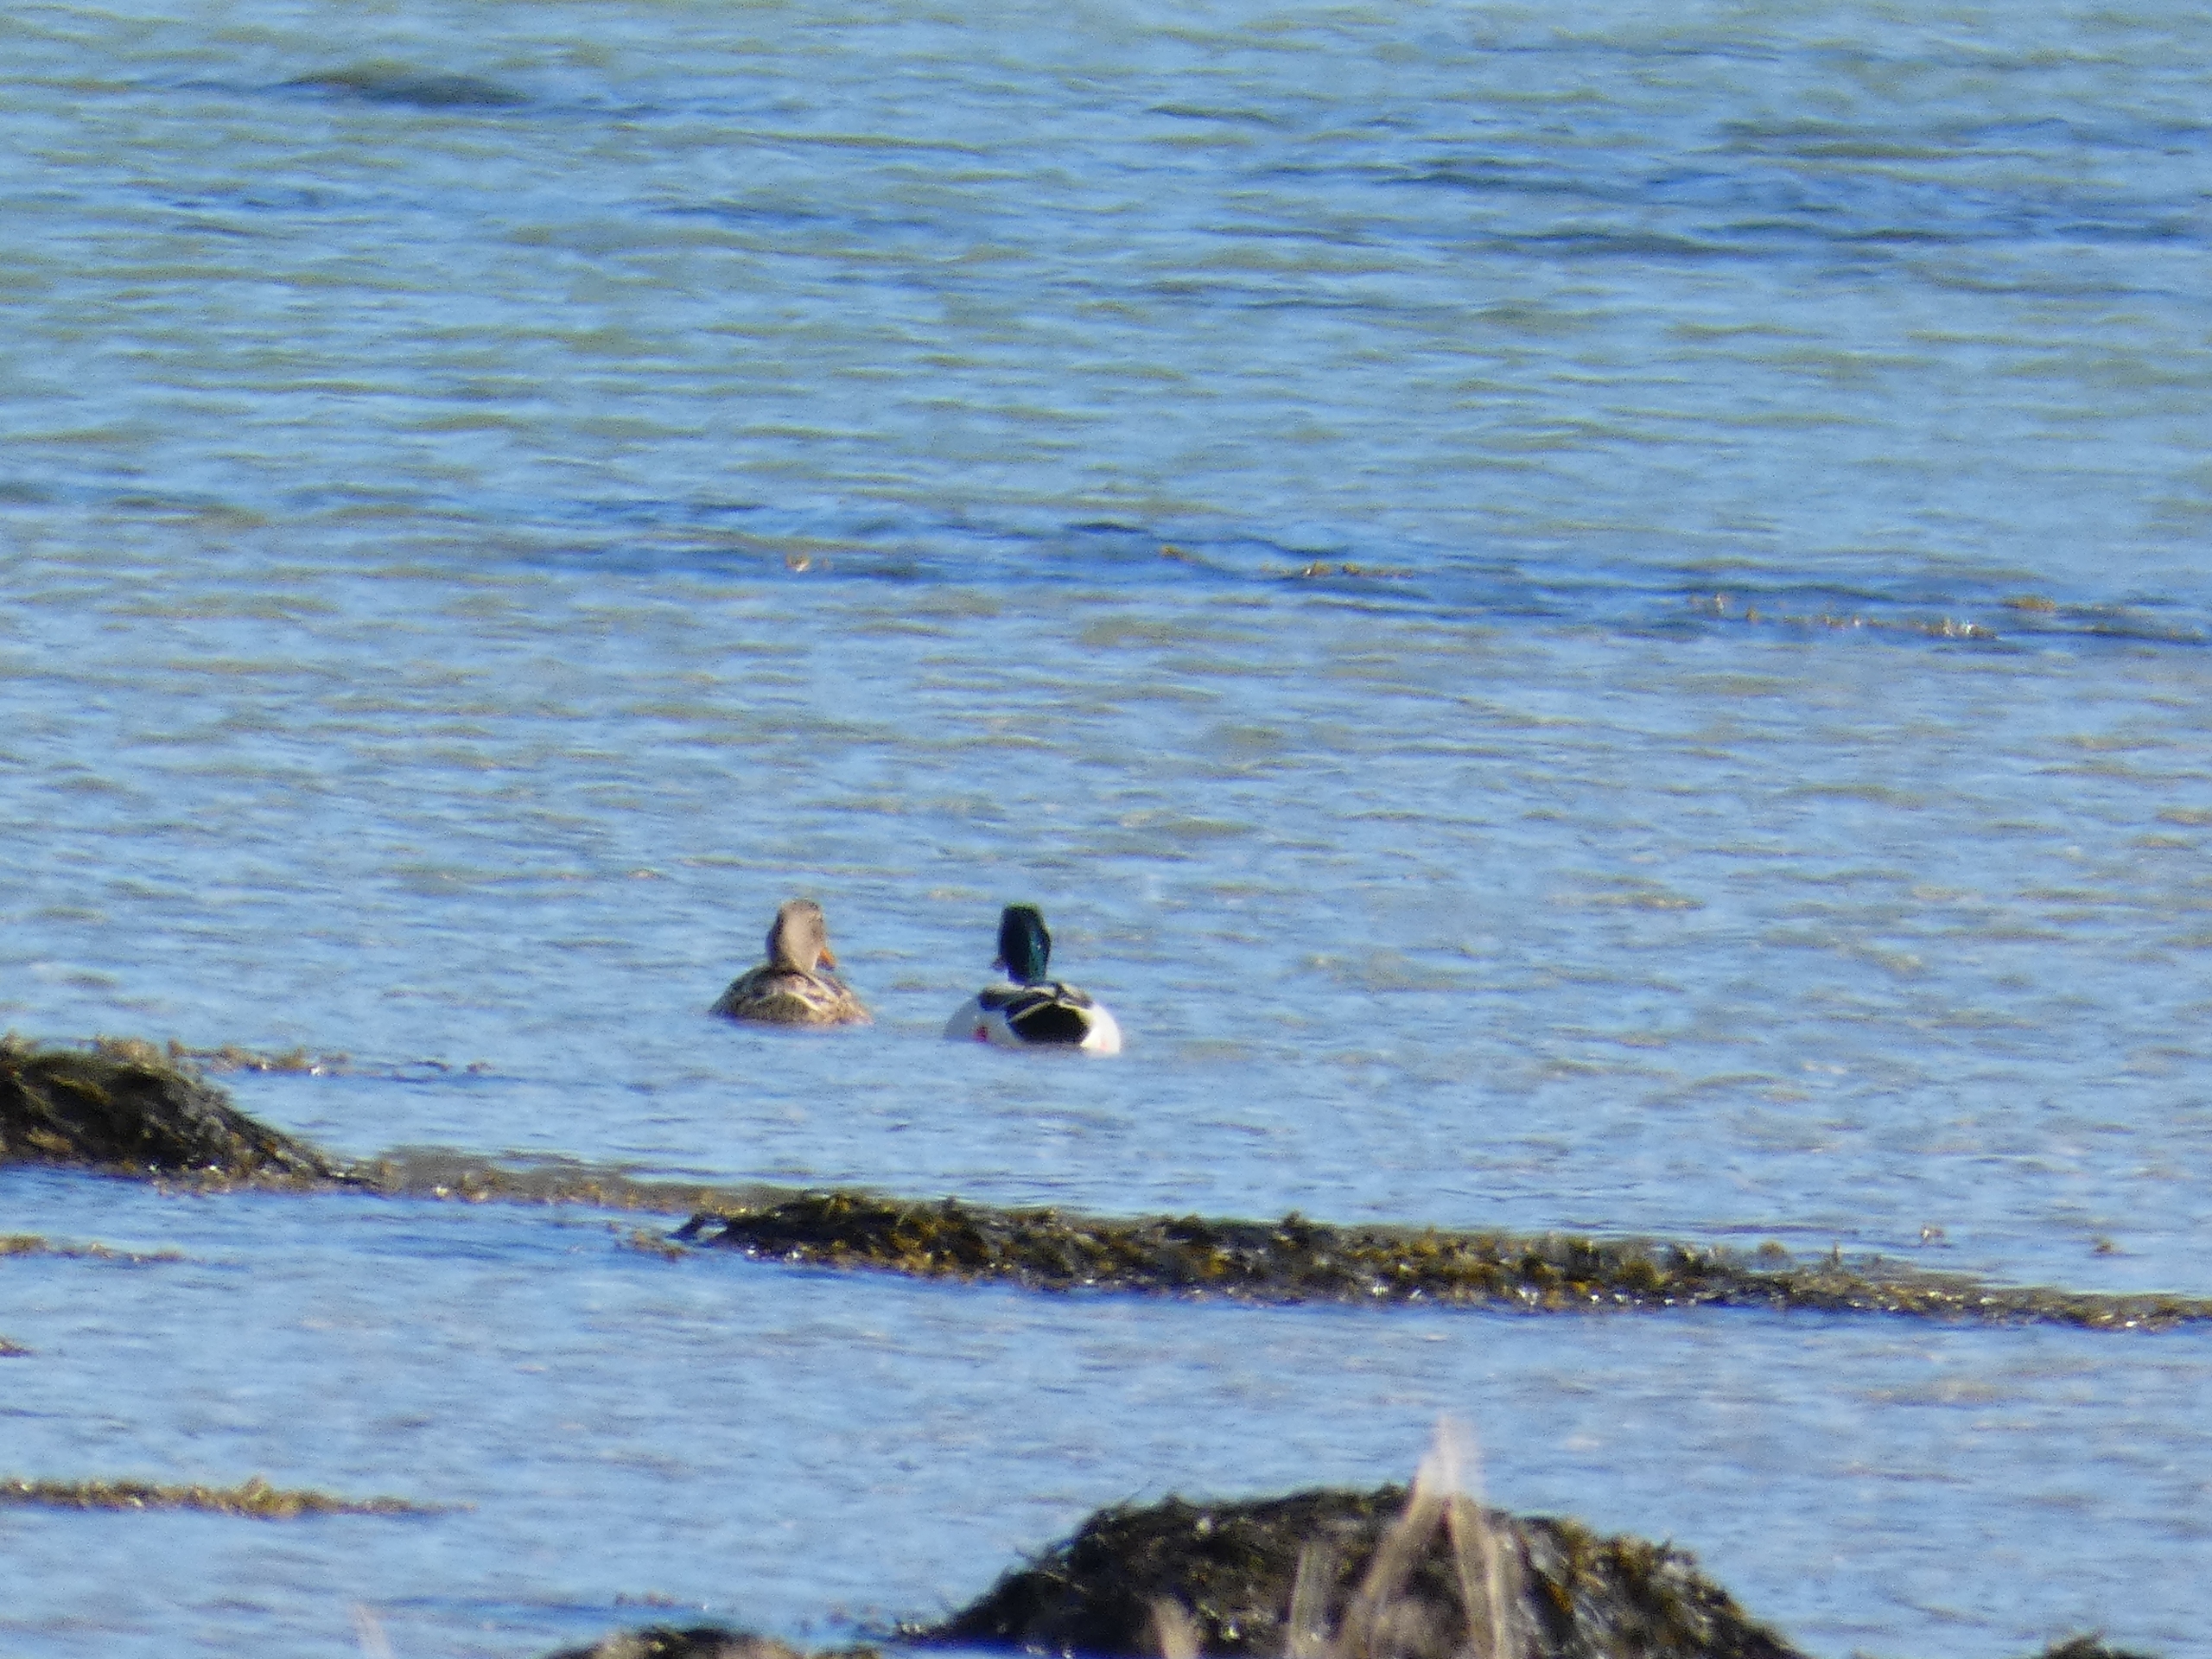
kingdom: Animalia
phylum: Chordata
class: Aves
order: Anseriformes
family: Anatidae
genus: Anas
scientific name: Anas platyrhynchos
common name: Gråand
